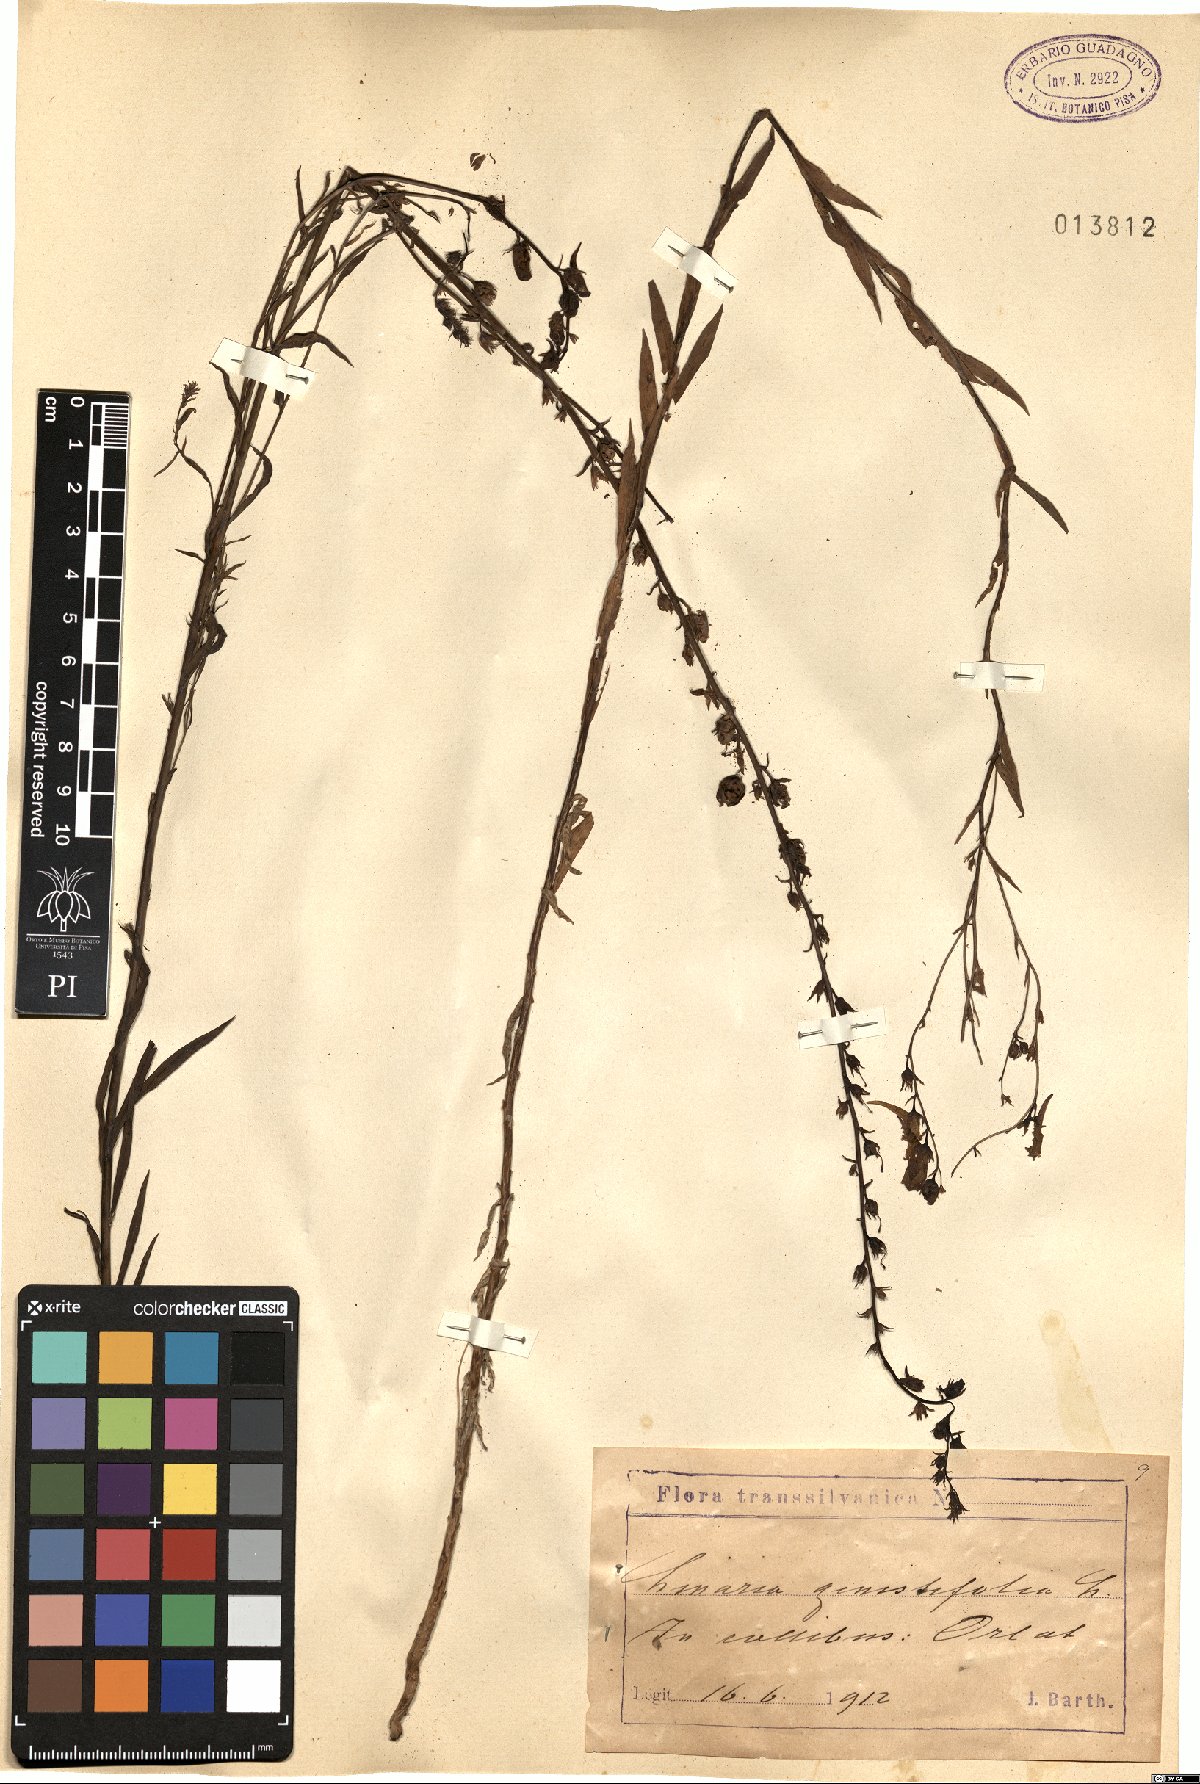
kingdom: Plantae
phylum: Tracheophyta
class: Magnoliopsida
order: Lamiales
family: Plantaginaceae
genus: Linaria
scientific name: Linaria genistifolia
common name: Broomleaf toadflax
